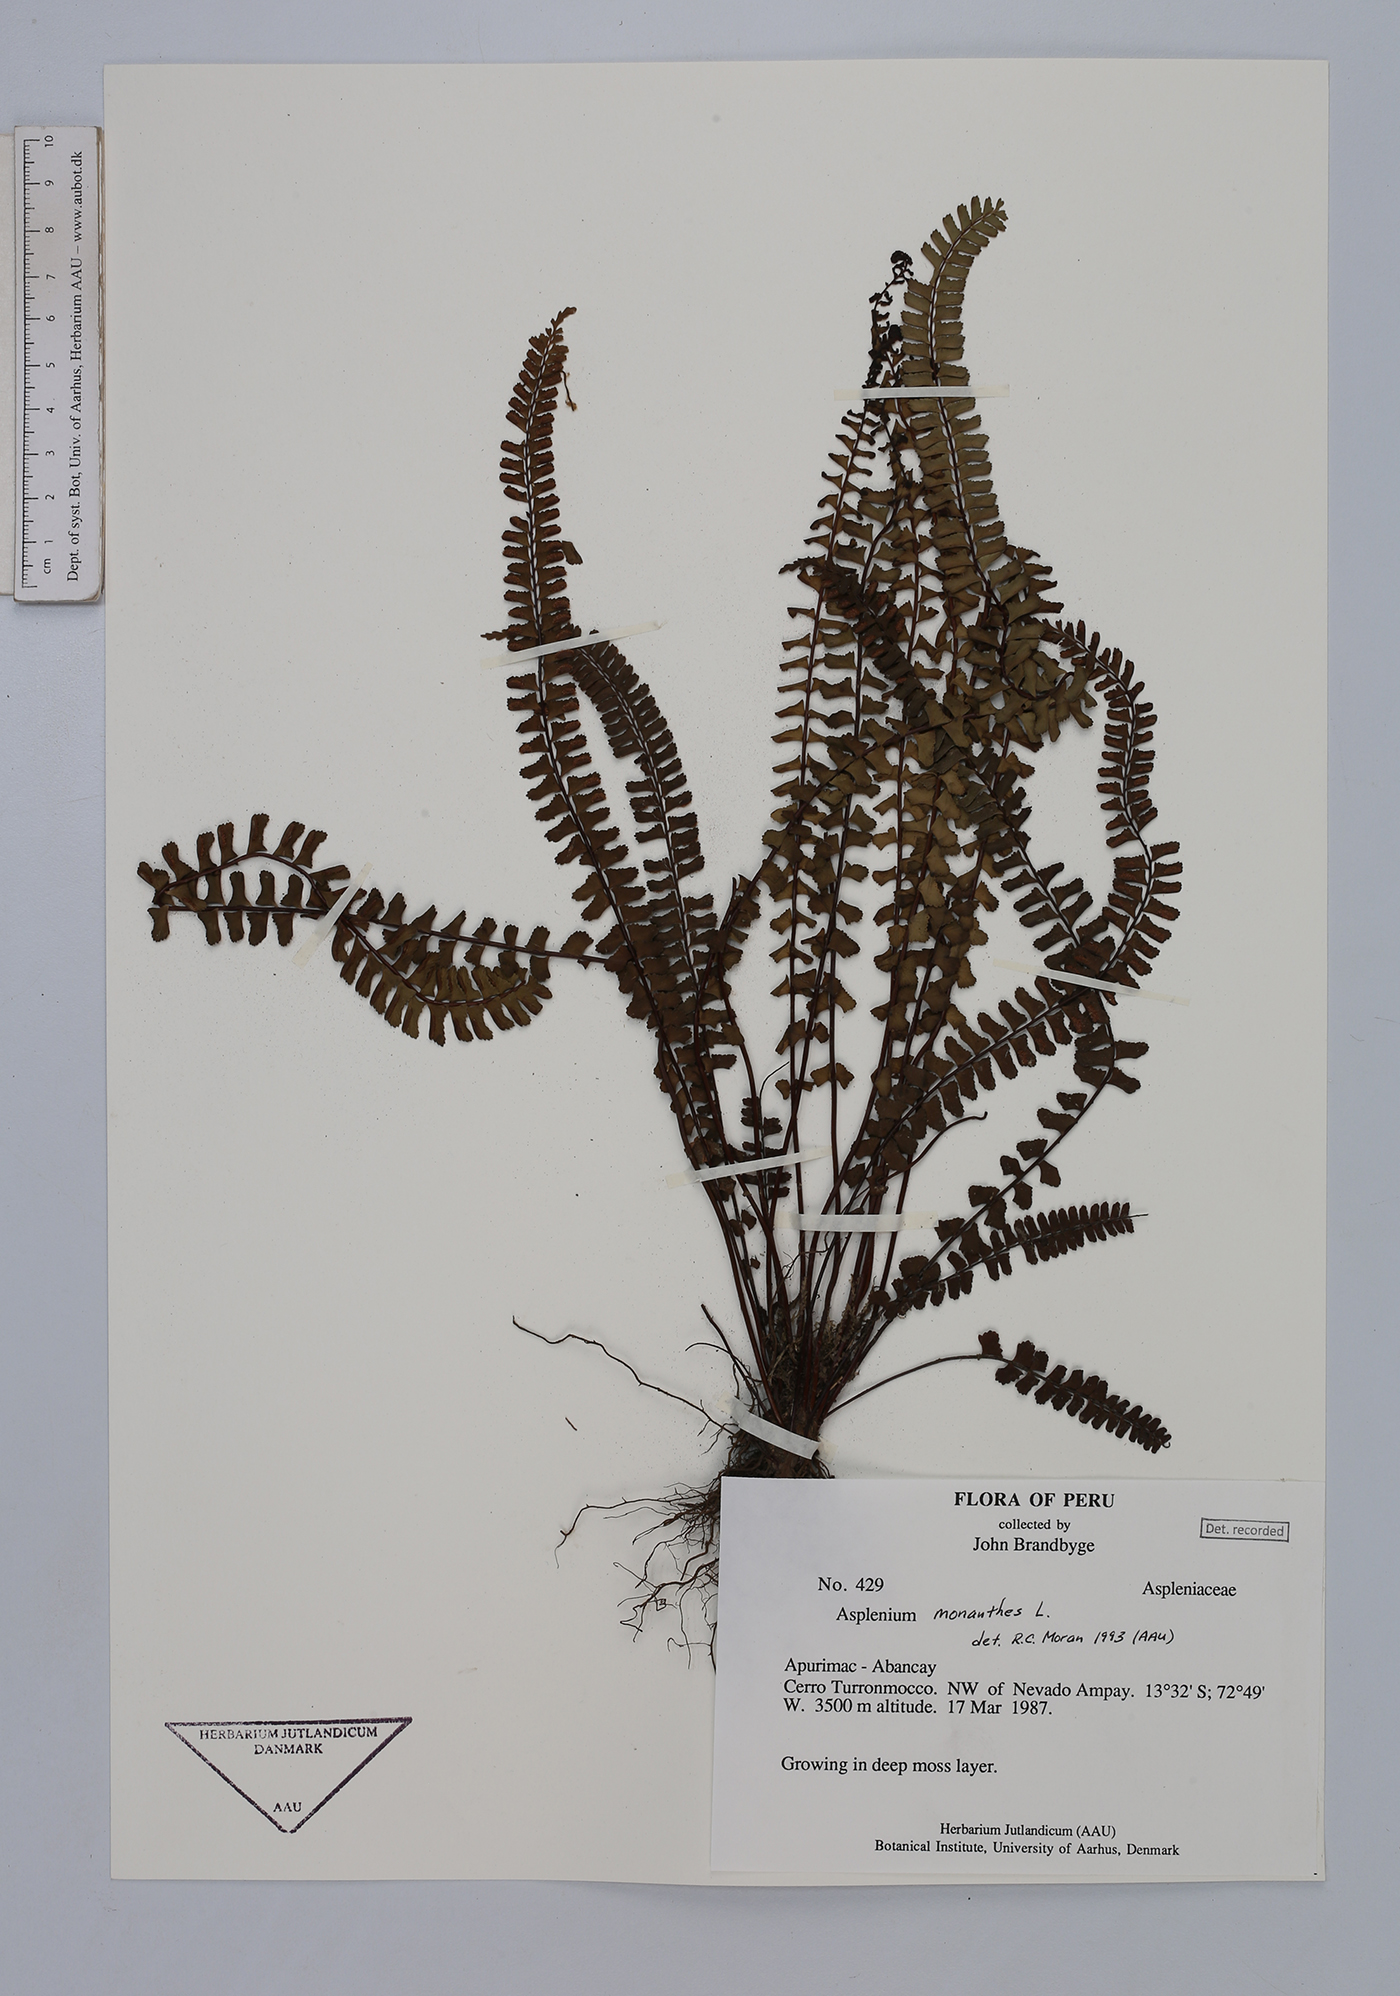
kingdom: Plantae
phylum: Tracheophyta
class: Polypodiopsida
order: Polypodiales
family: Aspleniaceae
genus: Asplenium
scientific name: Asplenium monanthes
